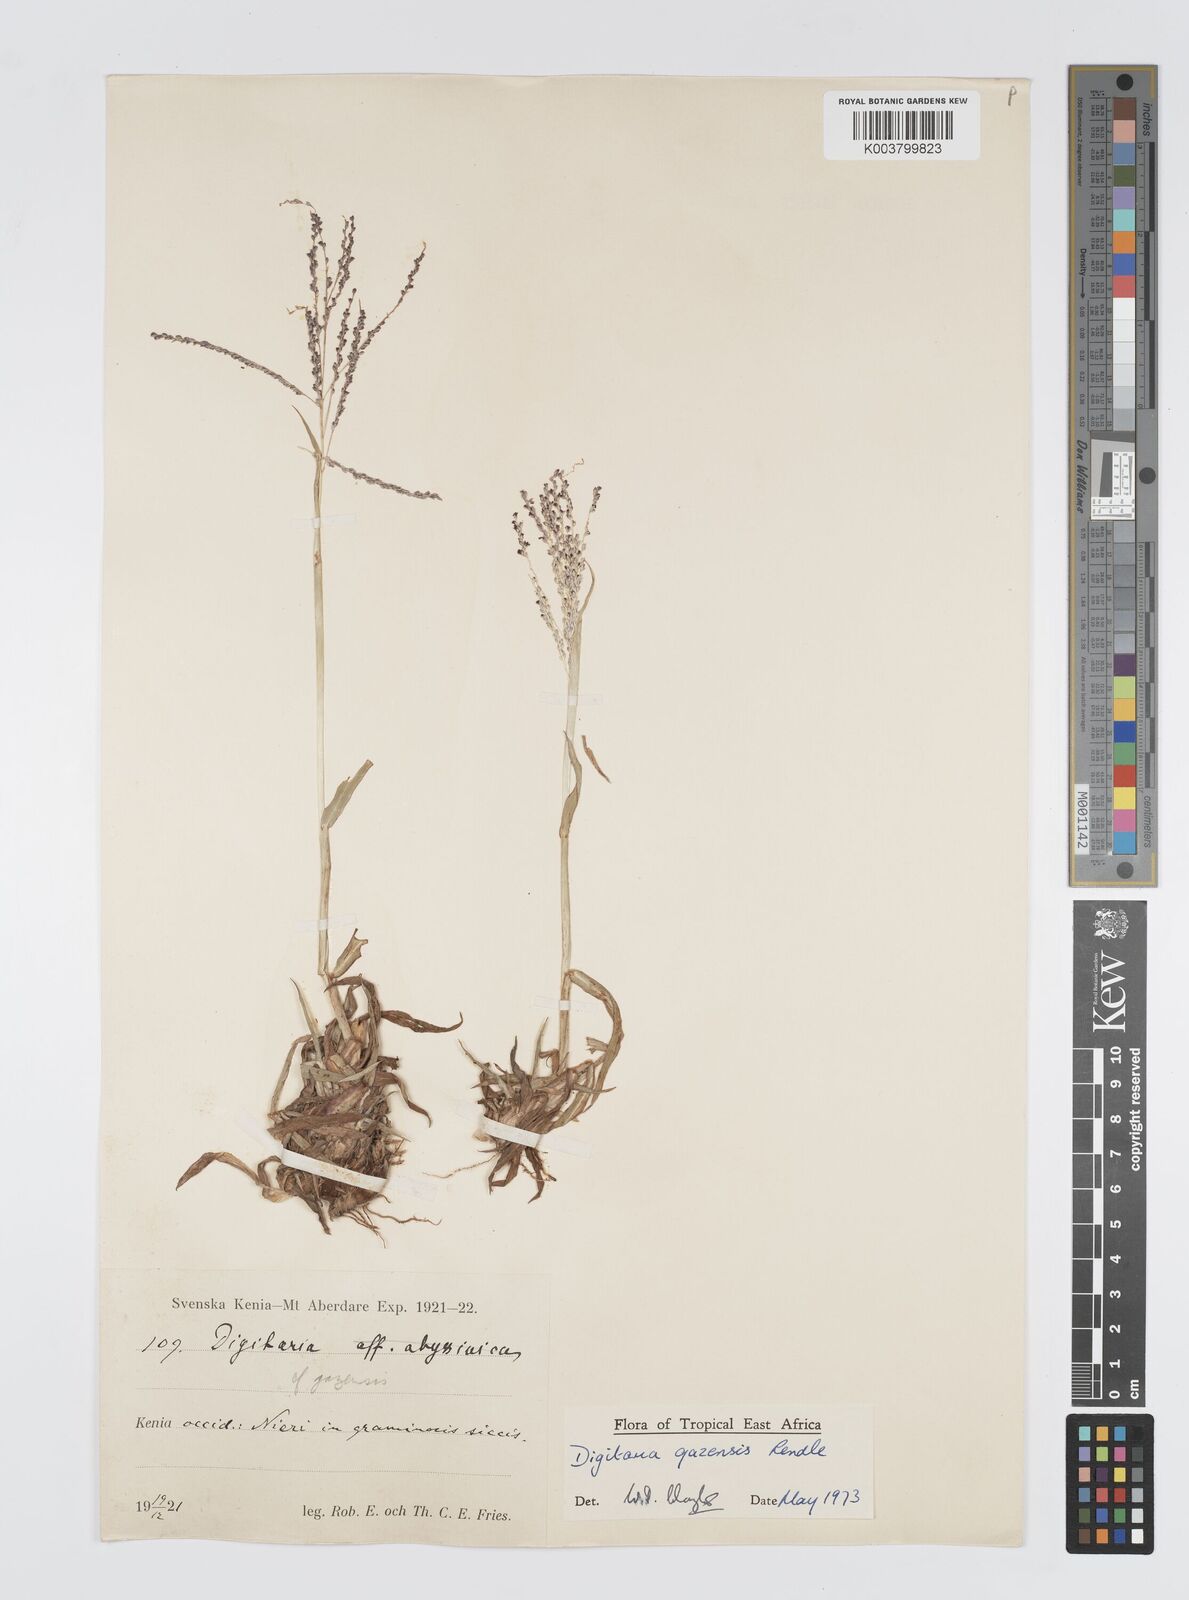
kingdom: Plantae
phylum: Tracheophyta
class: Liliopsida
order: Poales
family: Poaceae
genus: Digitaria
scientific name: Digitaria gazensis
